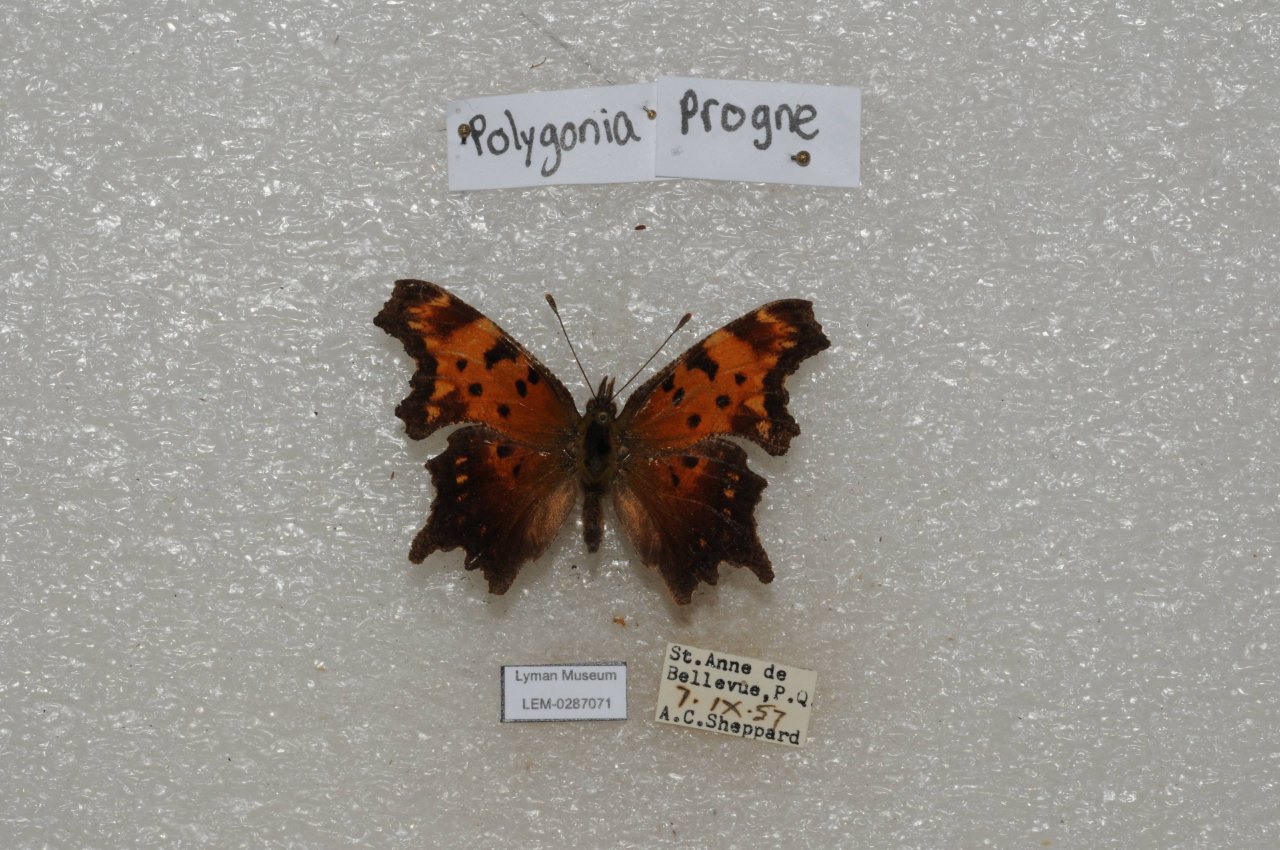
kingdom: Animalia
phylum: Arthropoda
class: Insecta
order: Lepidoptera
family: Nymphalidae
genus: Polygonia
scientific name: Polygonia progne
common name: Gray Comma
